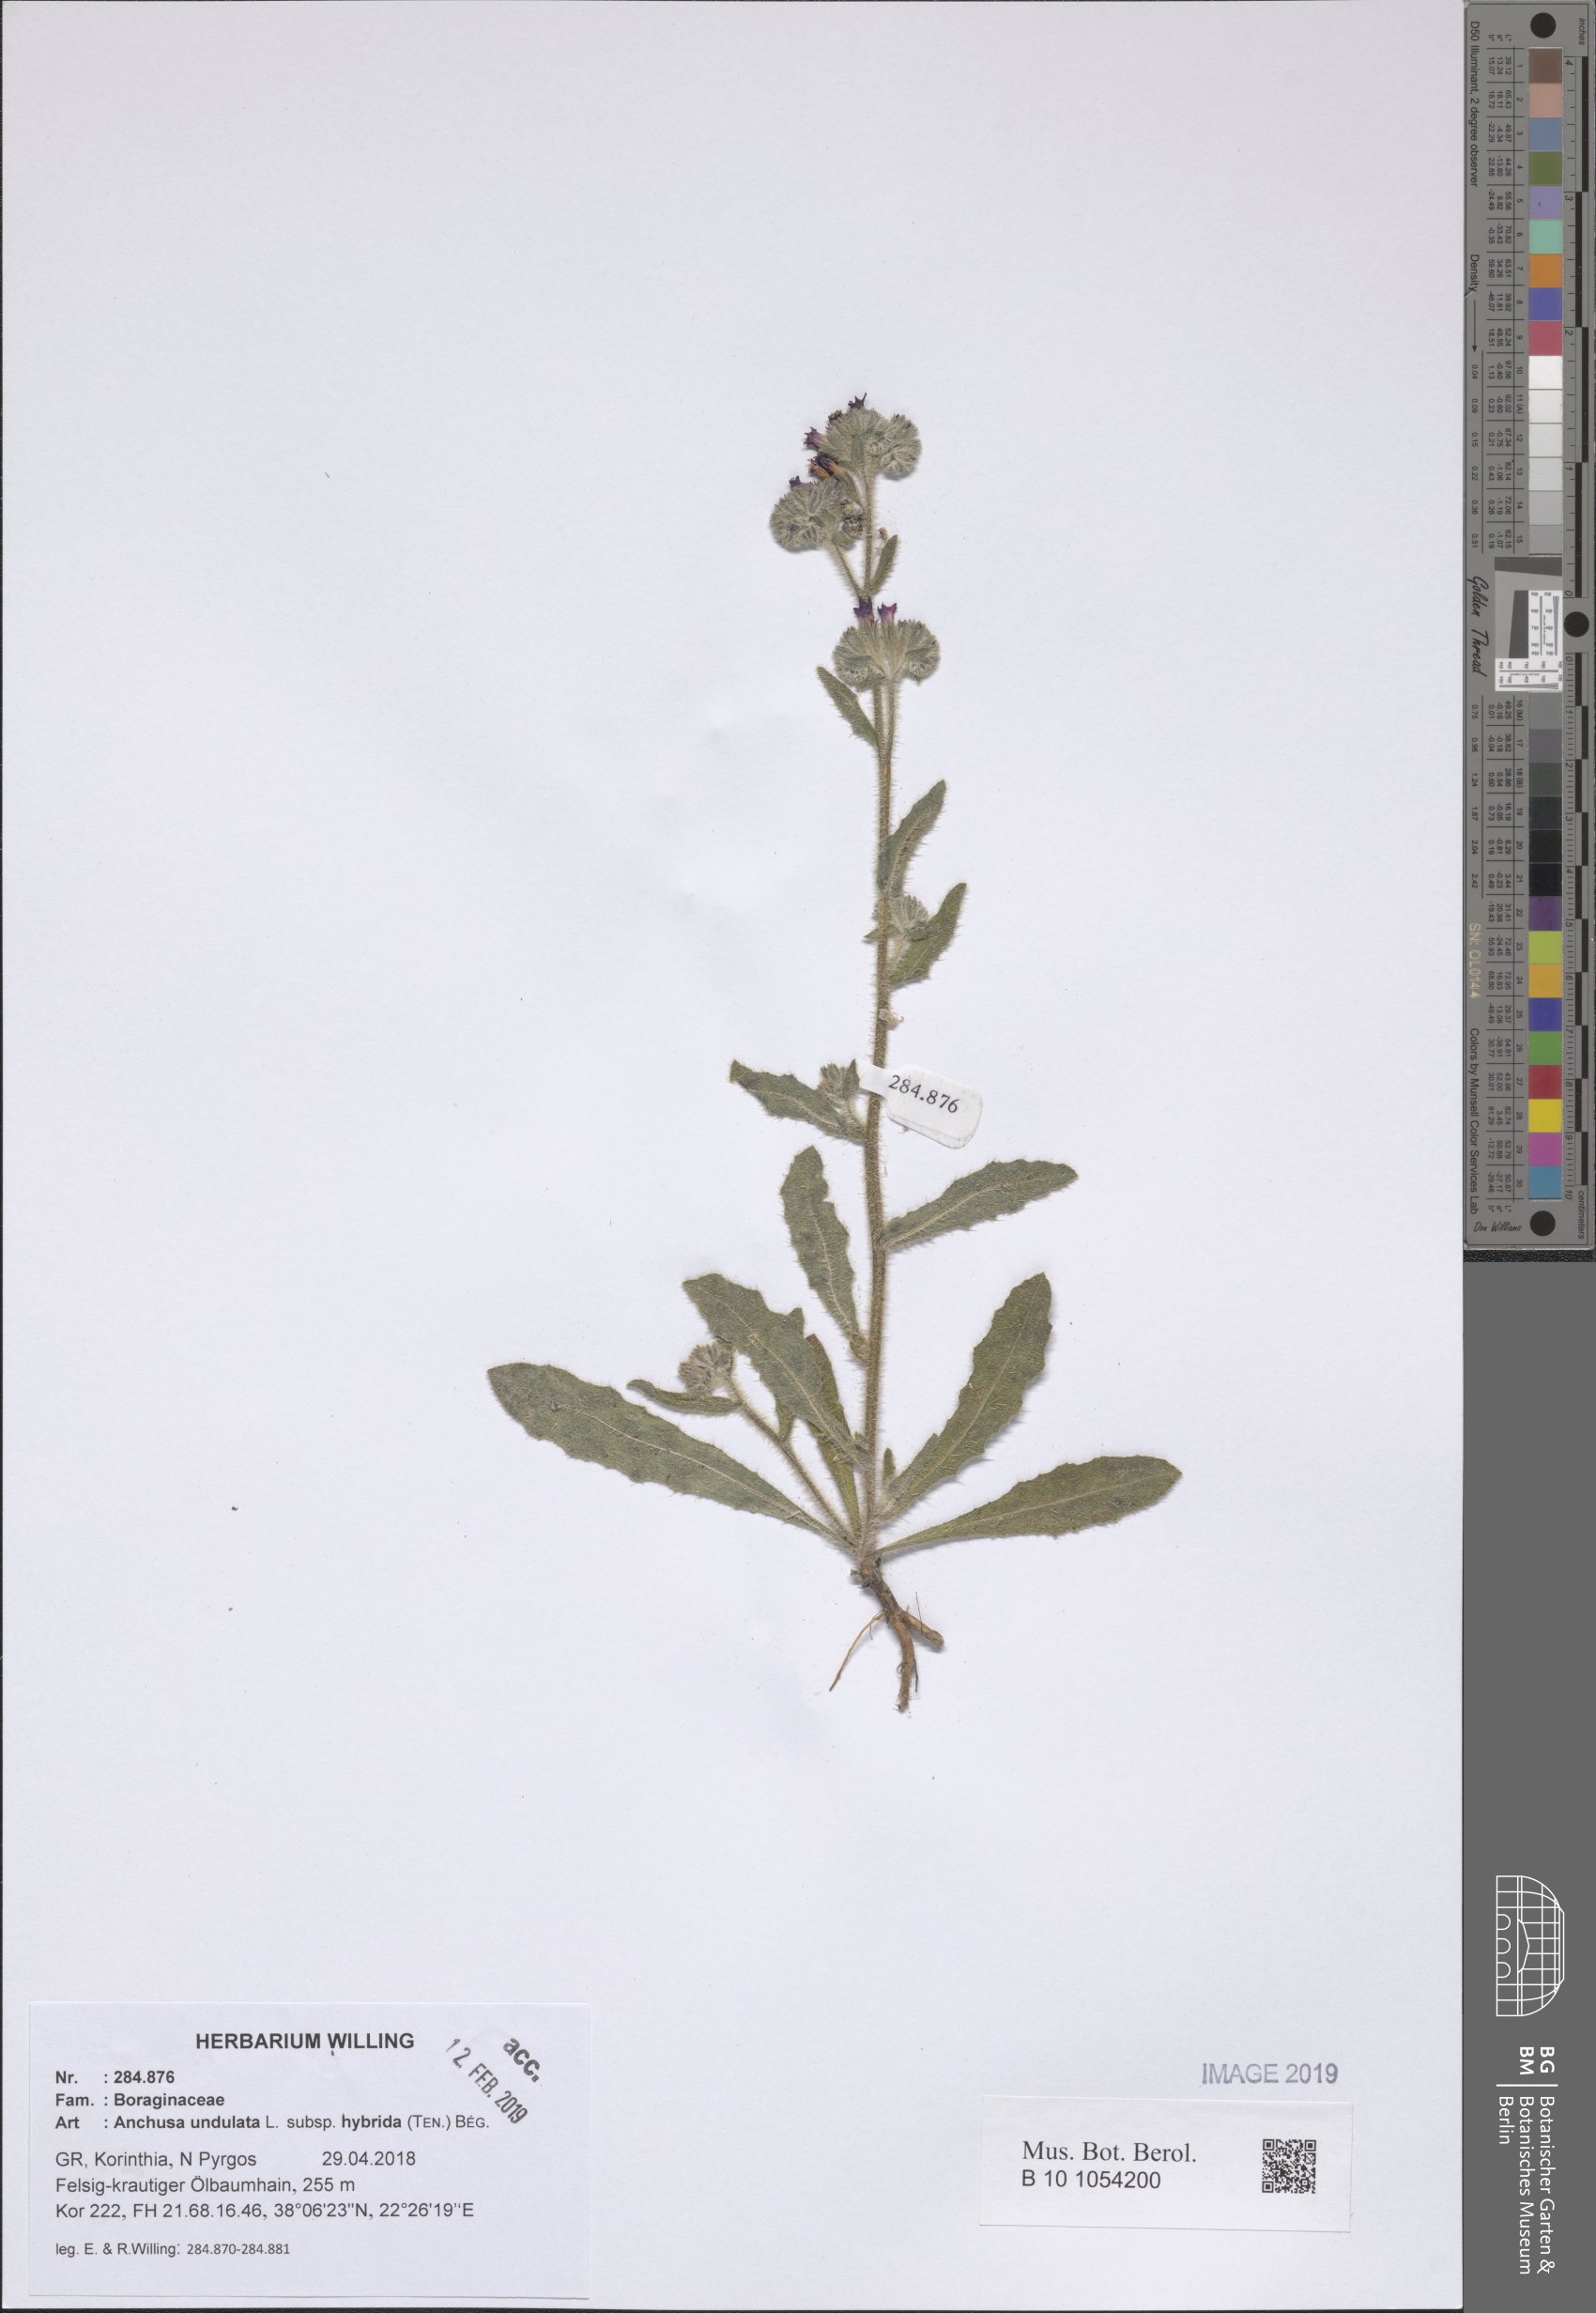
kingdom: Plantae
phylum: Tracheophyta
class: Magnoliopsida
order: Boraginales
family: Boraginaceae
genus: Anchusa
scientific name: Anchusa undulata
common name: Undulate alkanet
